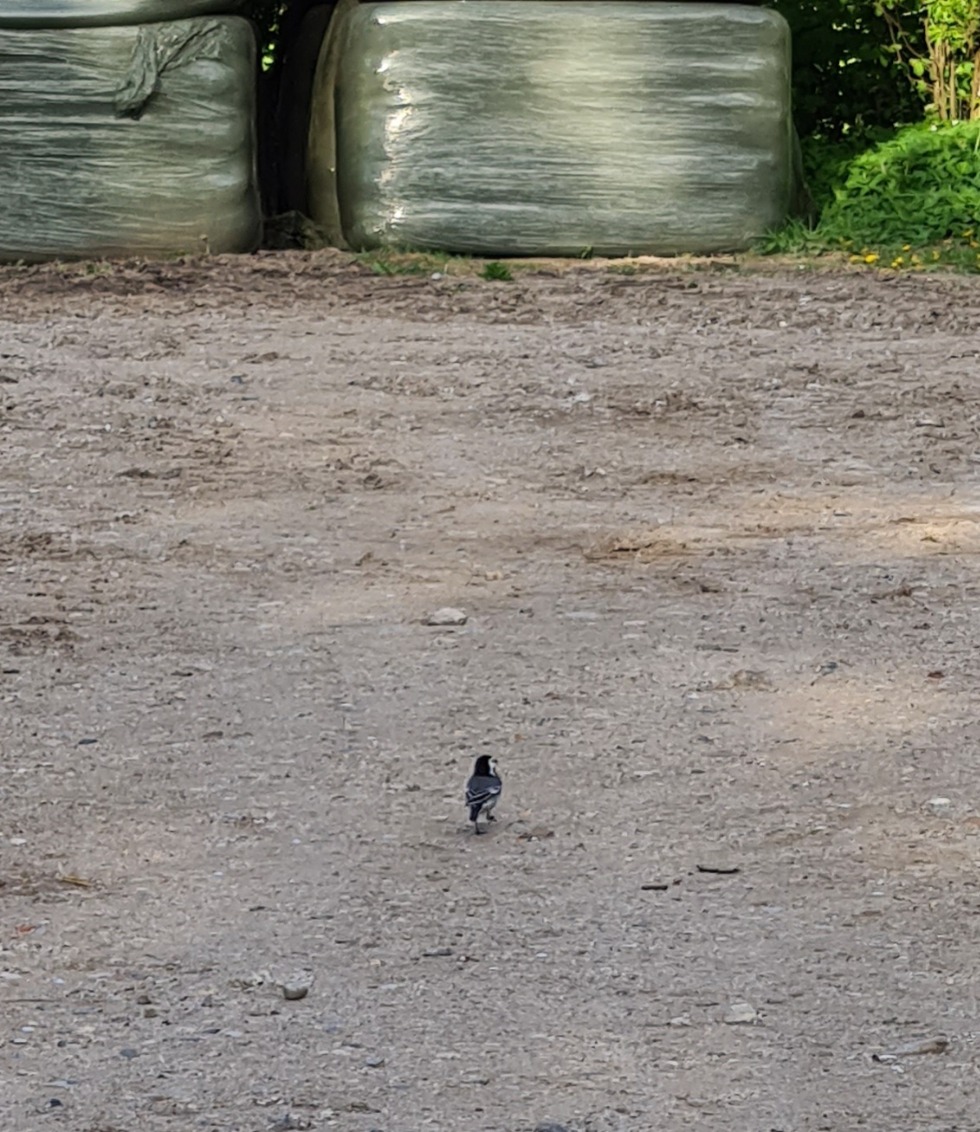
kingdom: Animalia
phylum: Chordata
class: Aves
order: Passeriformes
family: Motacillidae
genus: Motacilla
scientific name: Motacilla alba
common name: Hvid vipstjert
